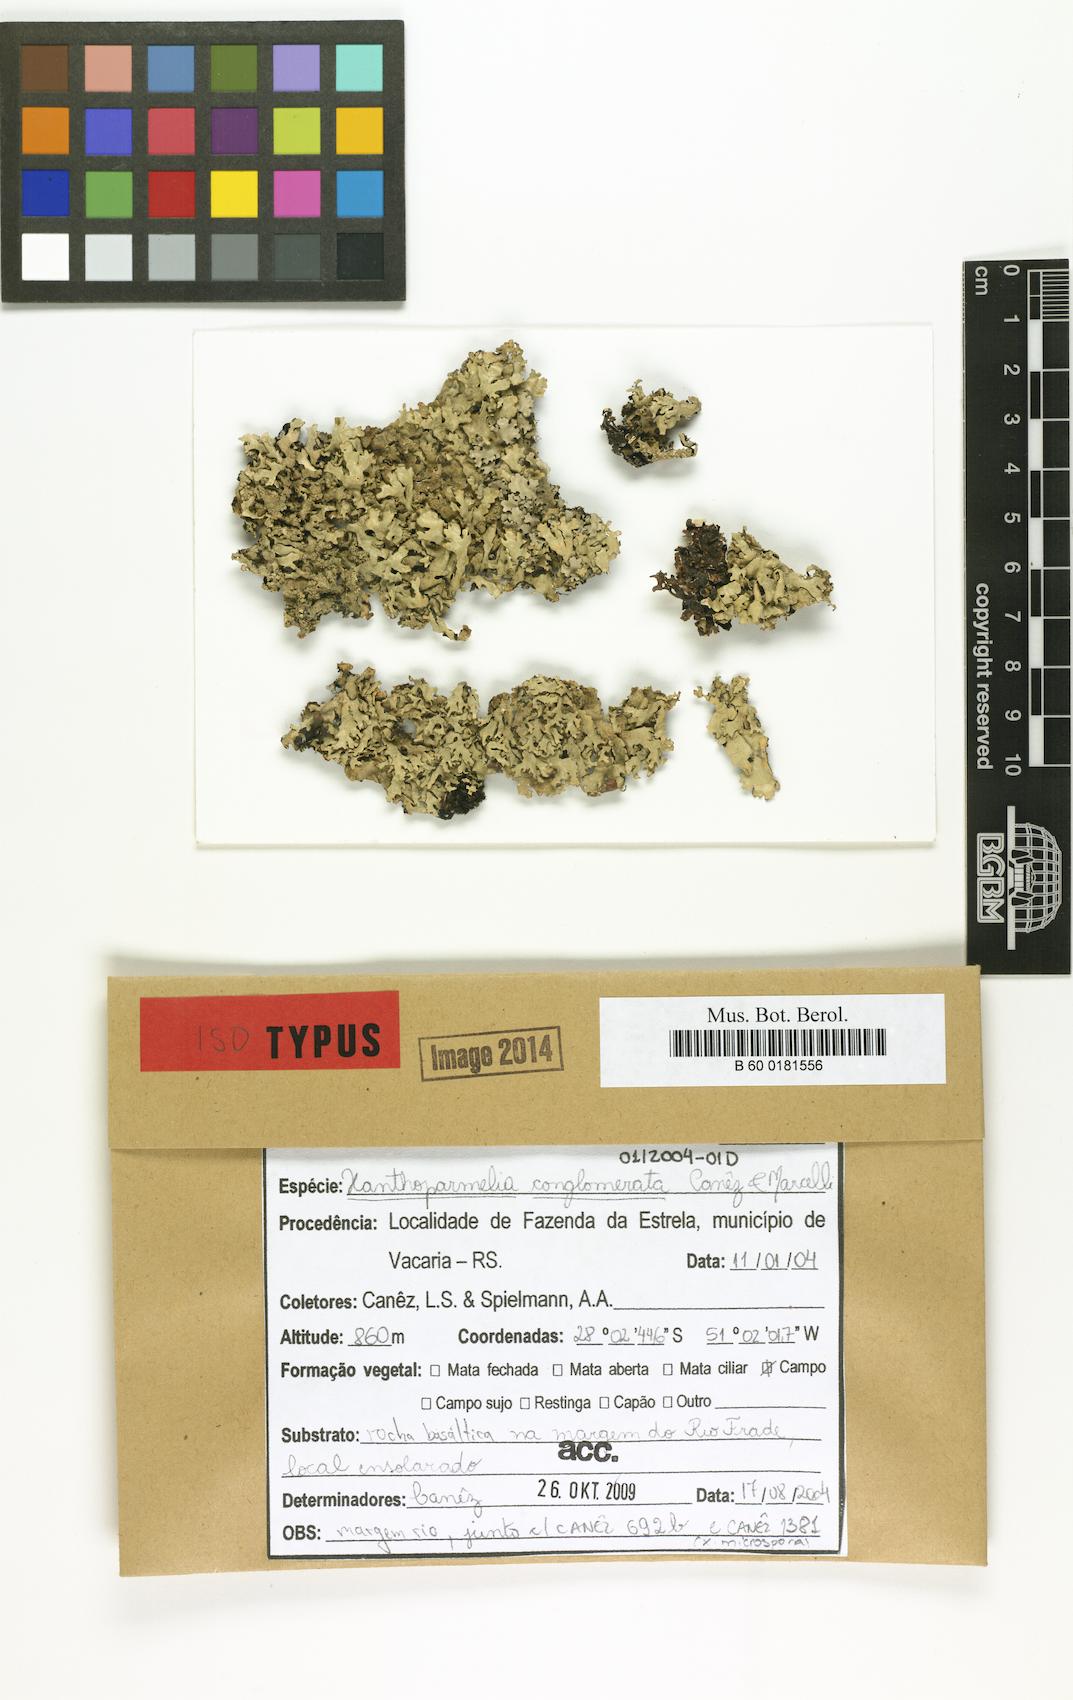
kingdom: Fungi
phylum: Ascomycota
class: Lecanoromycetes
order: Lecanorales
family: Parmeliaceae
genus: Xanthoparmelia
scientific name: Xanthoparmelia conglomerata
